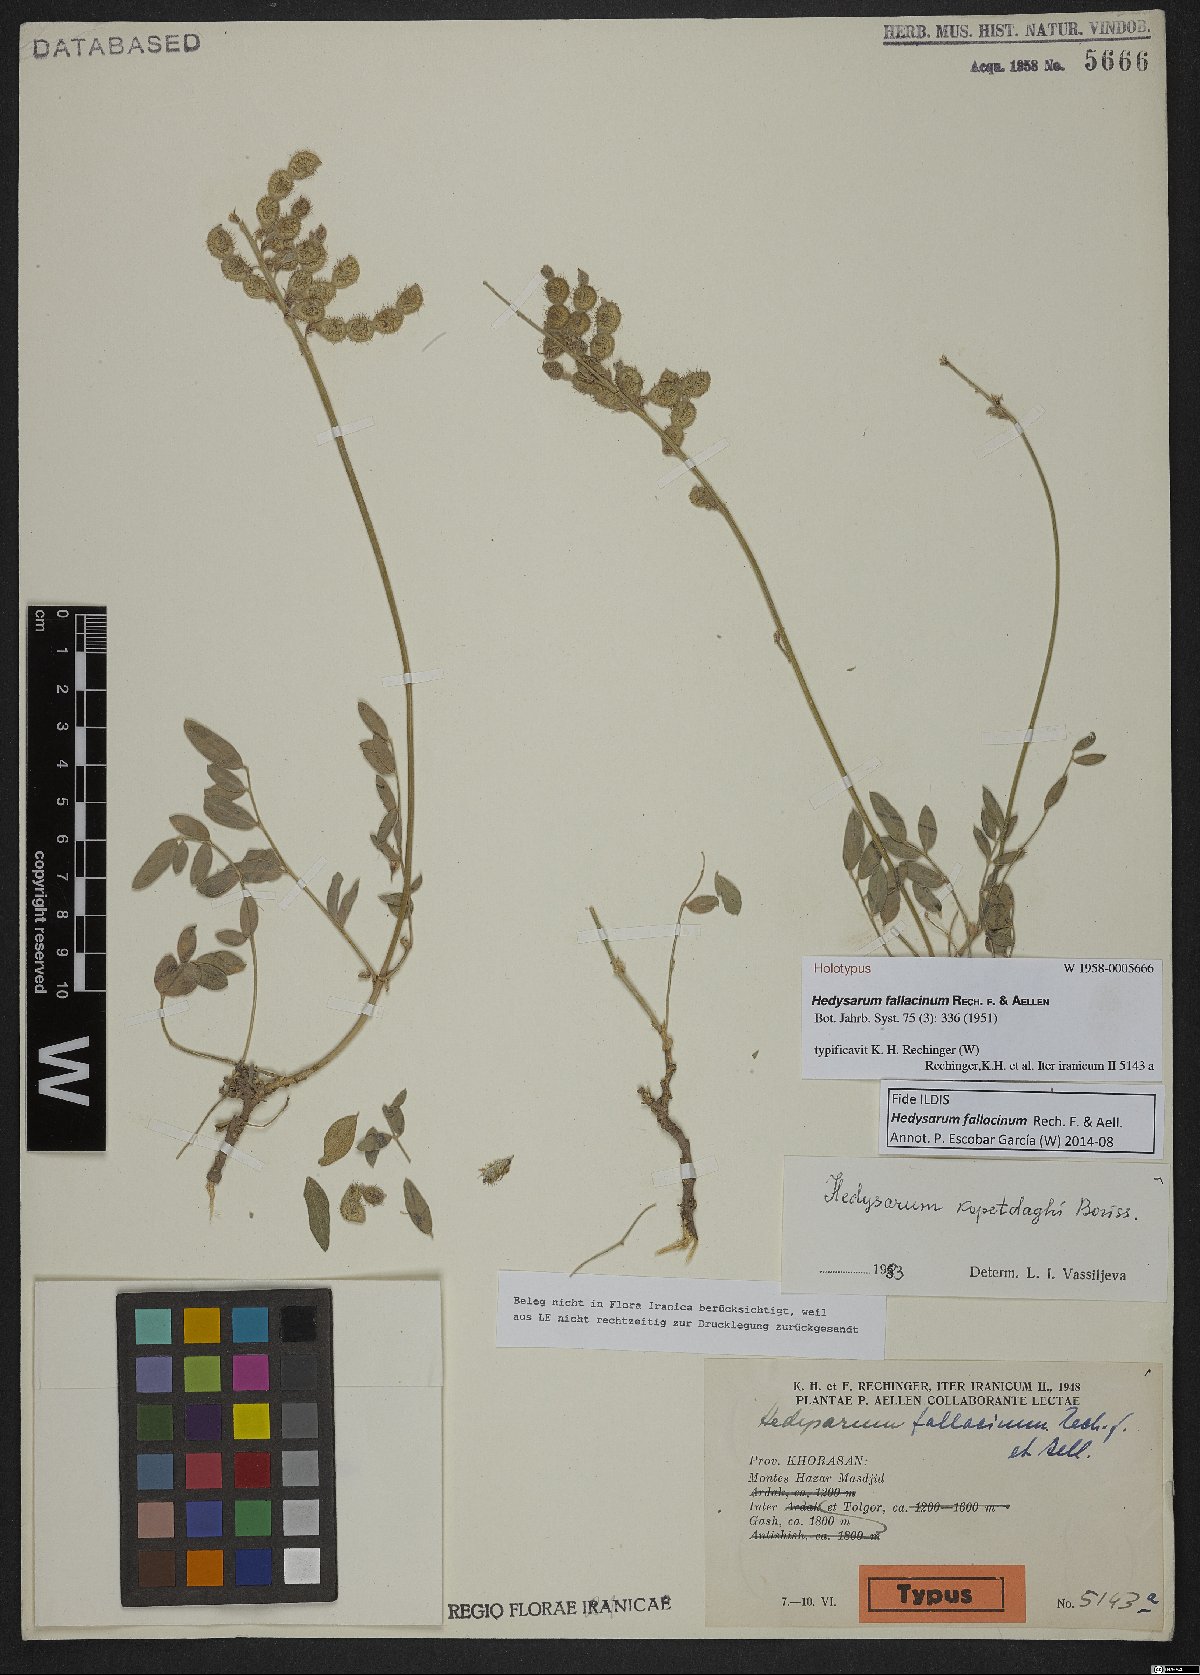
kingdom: Plantae
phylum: Tracheophyta
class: Magnoliopsida
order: Fabales
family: Fabaceae
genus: Hedysarum
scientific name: Hedysarum fallacinum
